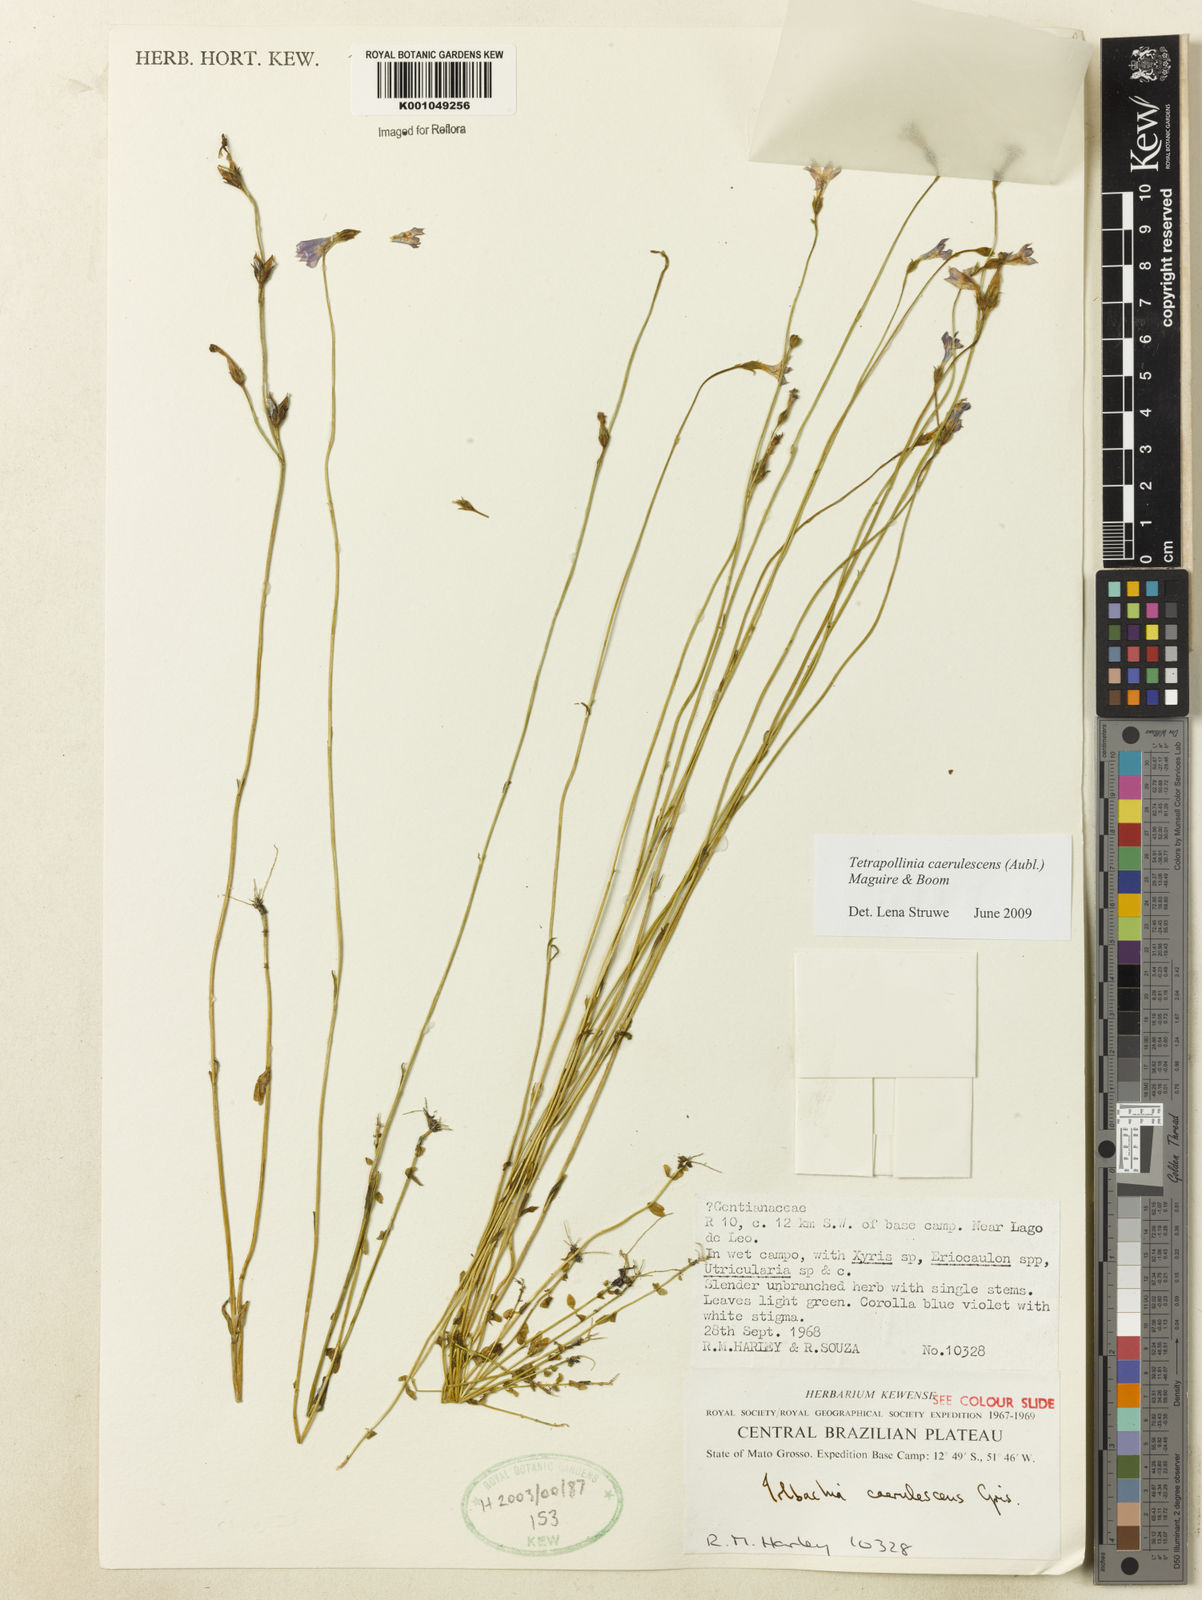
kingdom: Plantae
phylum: Tracheophyta
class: Magnoliopsida
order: Gentianales
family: Gentianaceae
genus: Tetrapollinia
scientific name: Tetrapollinia caerulescens
